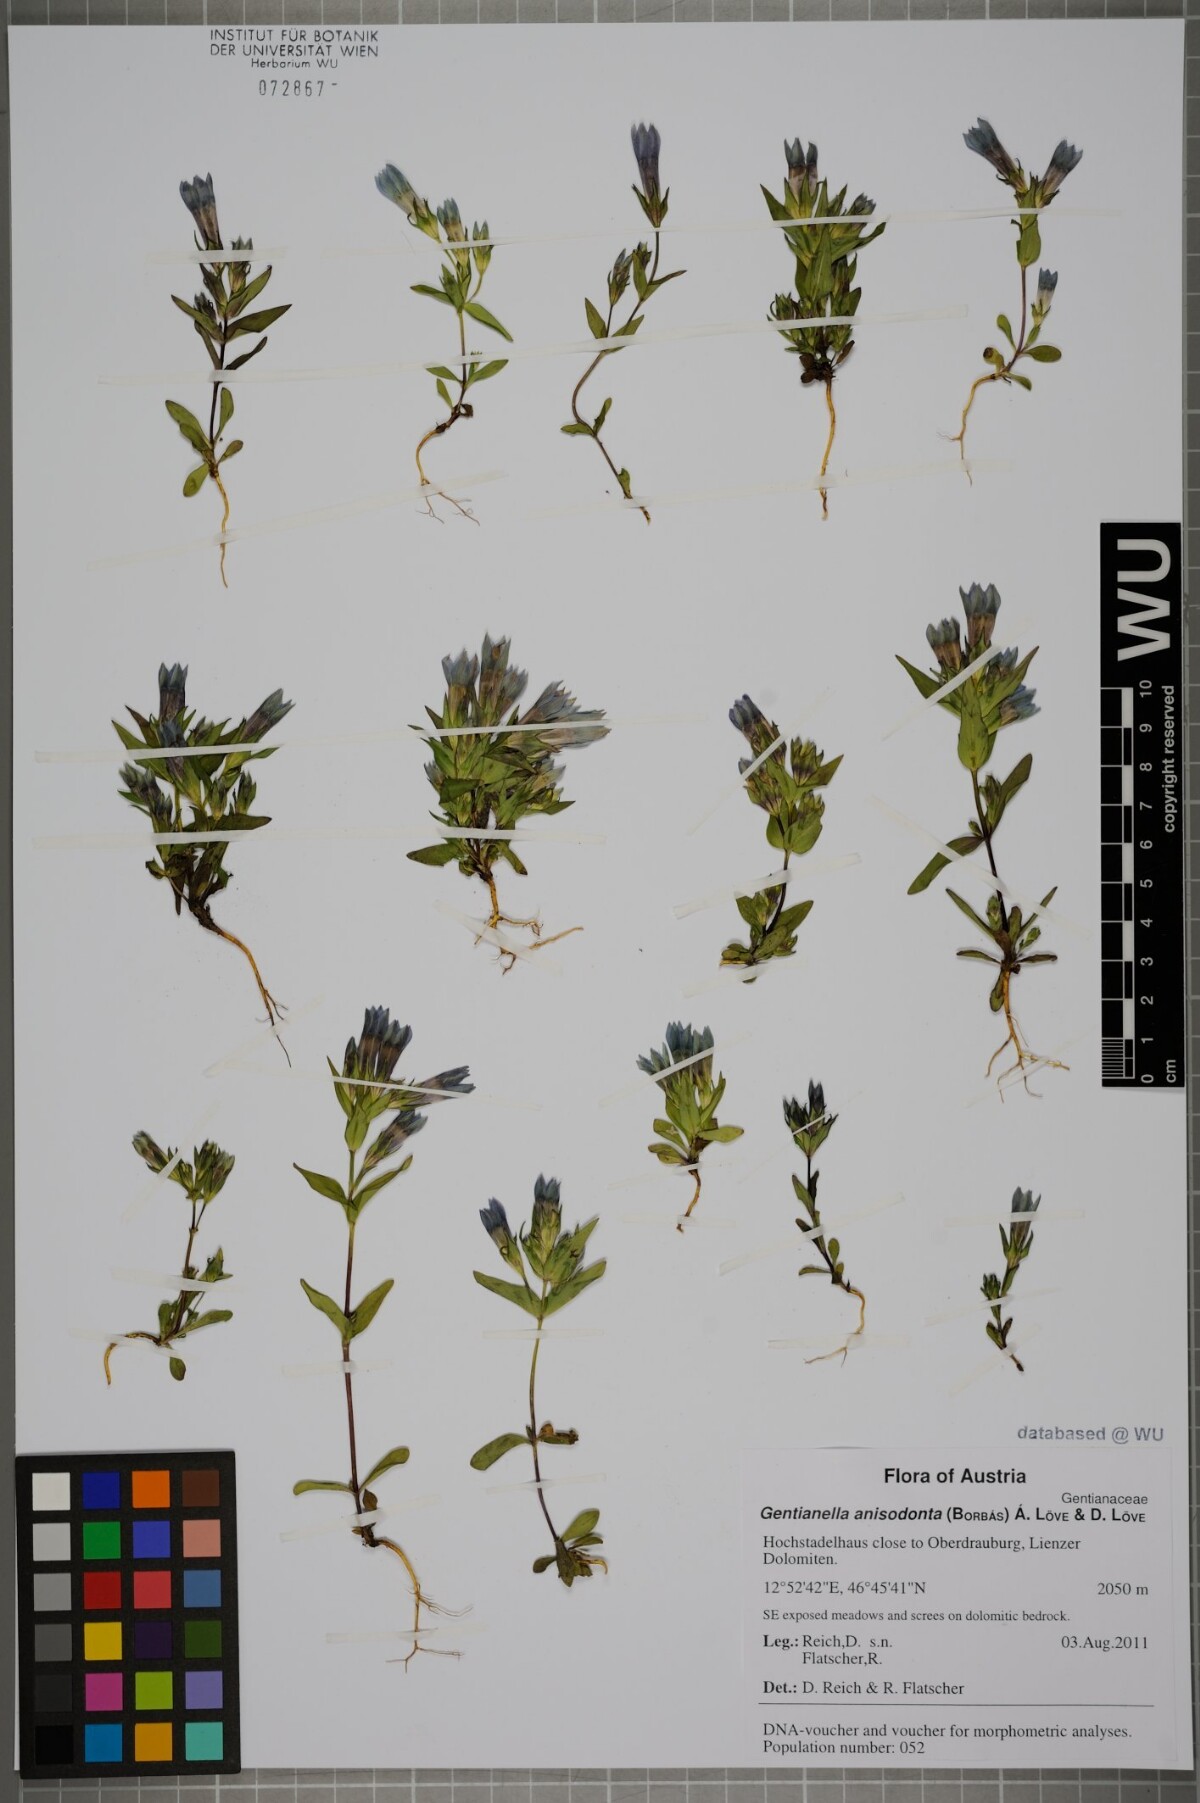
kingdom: Plantae
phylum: Tracheophyta
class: Magnoliopsida
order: Gentianales
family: Gentianaceae
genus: Gentianella
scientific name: Gentianella anisodonta
